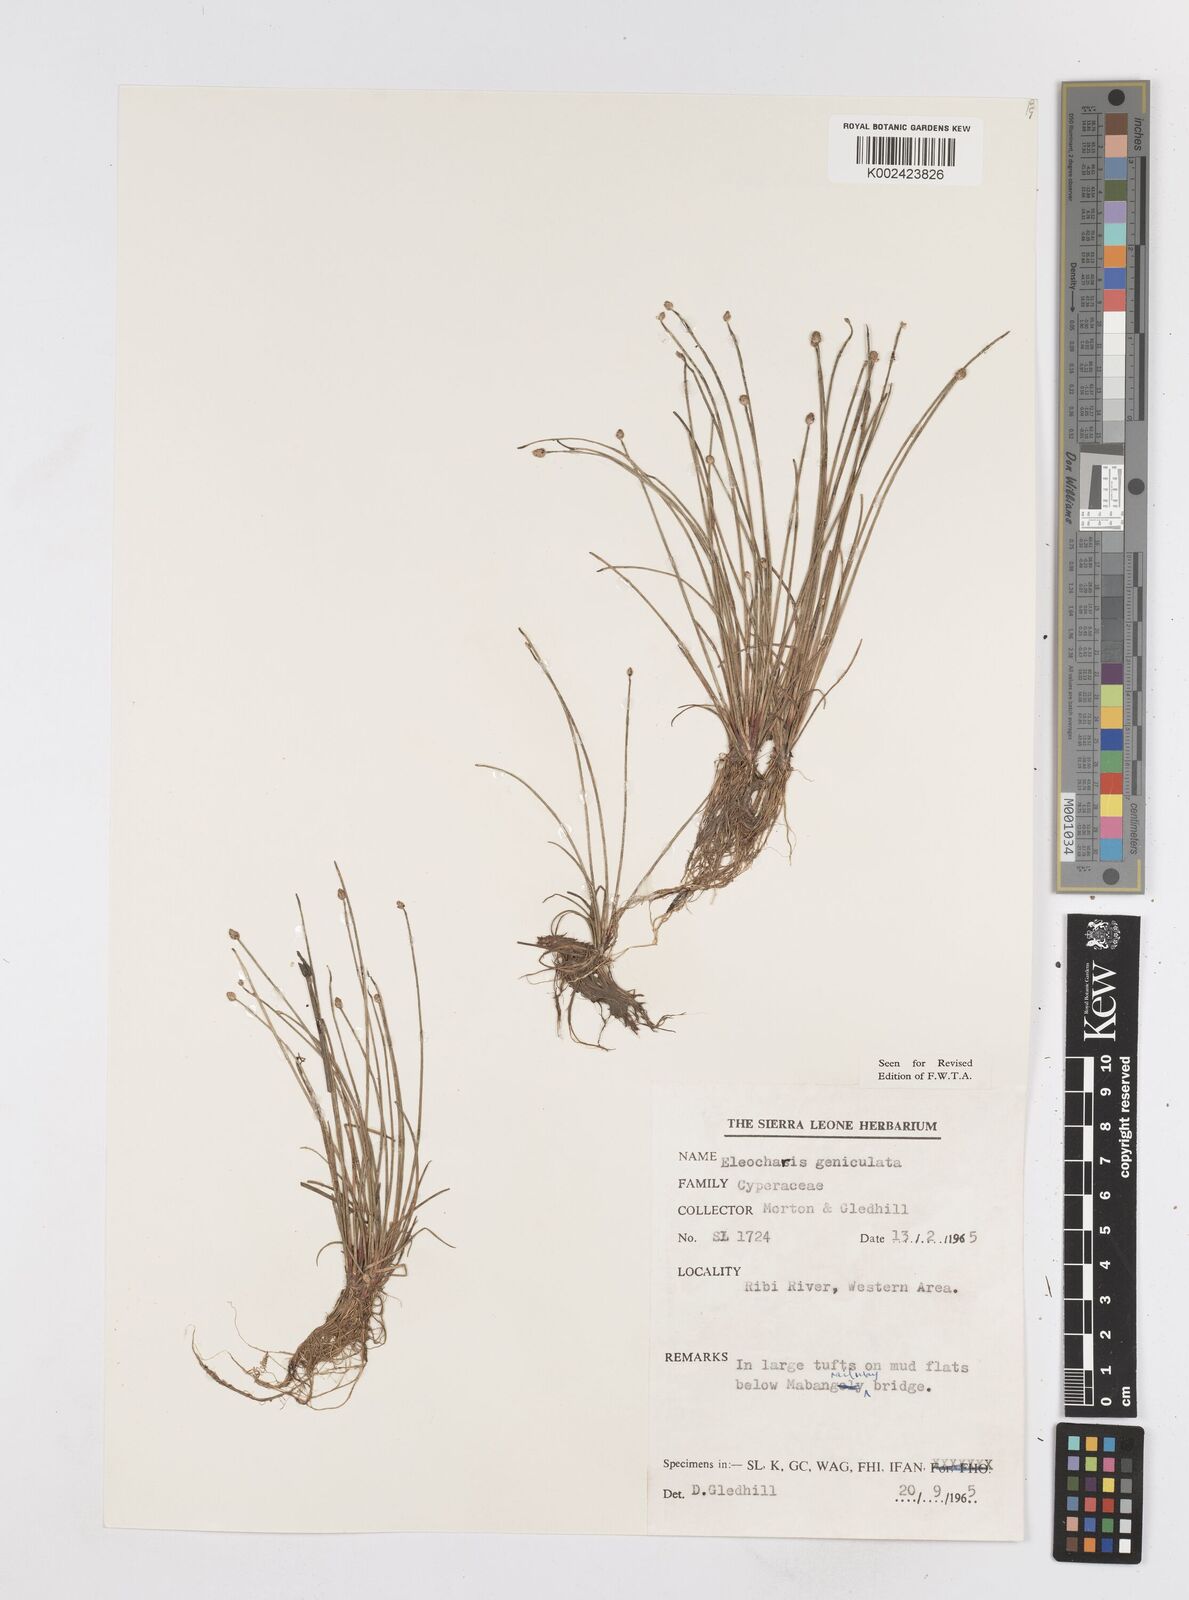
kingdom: Plantae
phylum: Tracheophyta
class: Liliopsida
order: Poales
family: Cyperaceae
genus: Eleocharis
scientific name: Eleocharis geniculata
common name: Canada spikesedge
